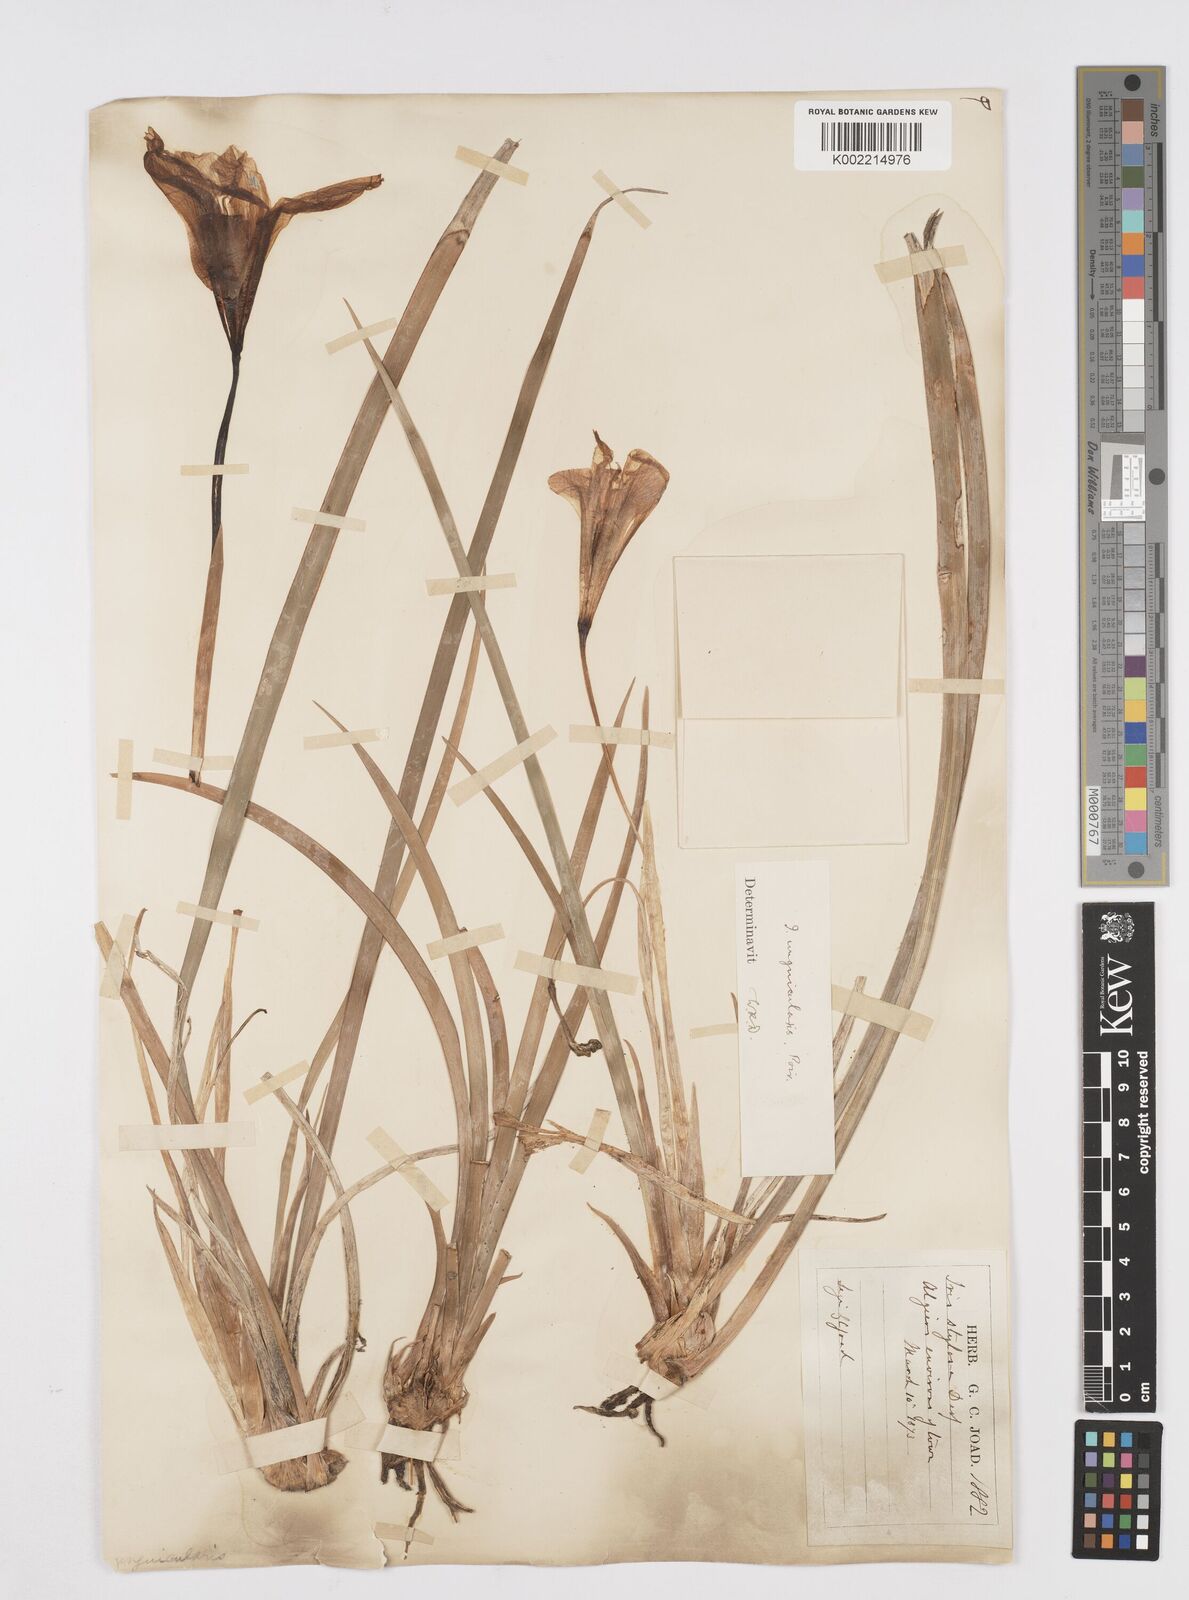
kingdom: Plantae
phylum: Tracheophyta
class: Liliopsida
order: Asparagales
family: Iridaceae
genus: Iris
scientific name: Iris unguicularis
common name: Algerian iris
